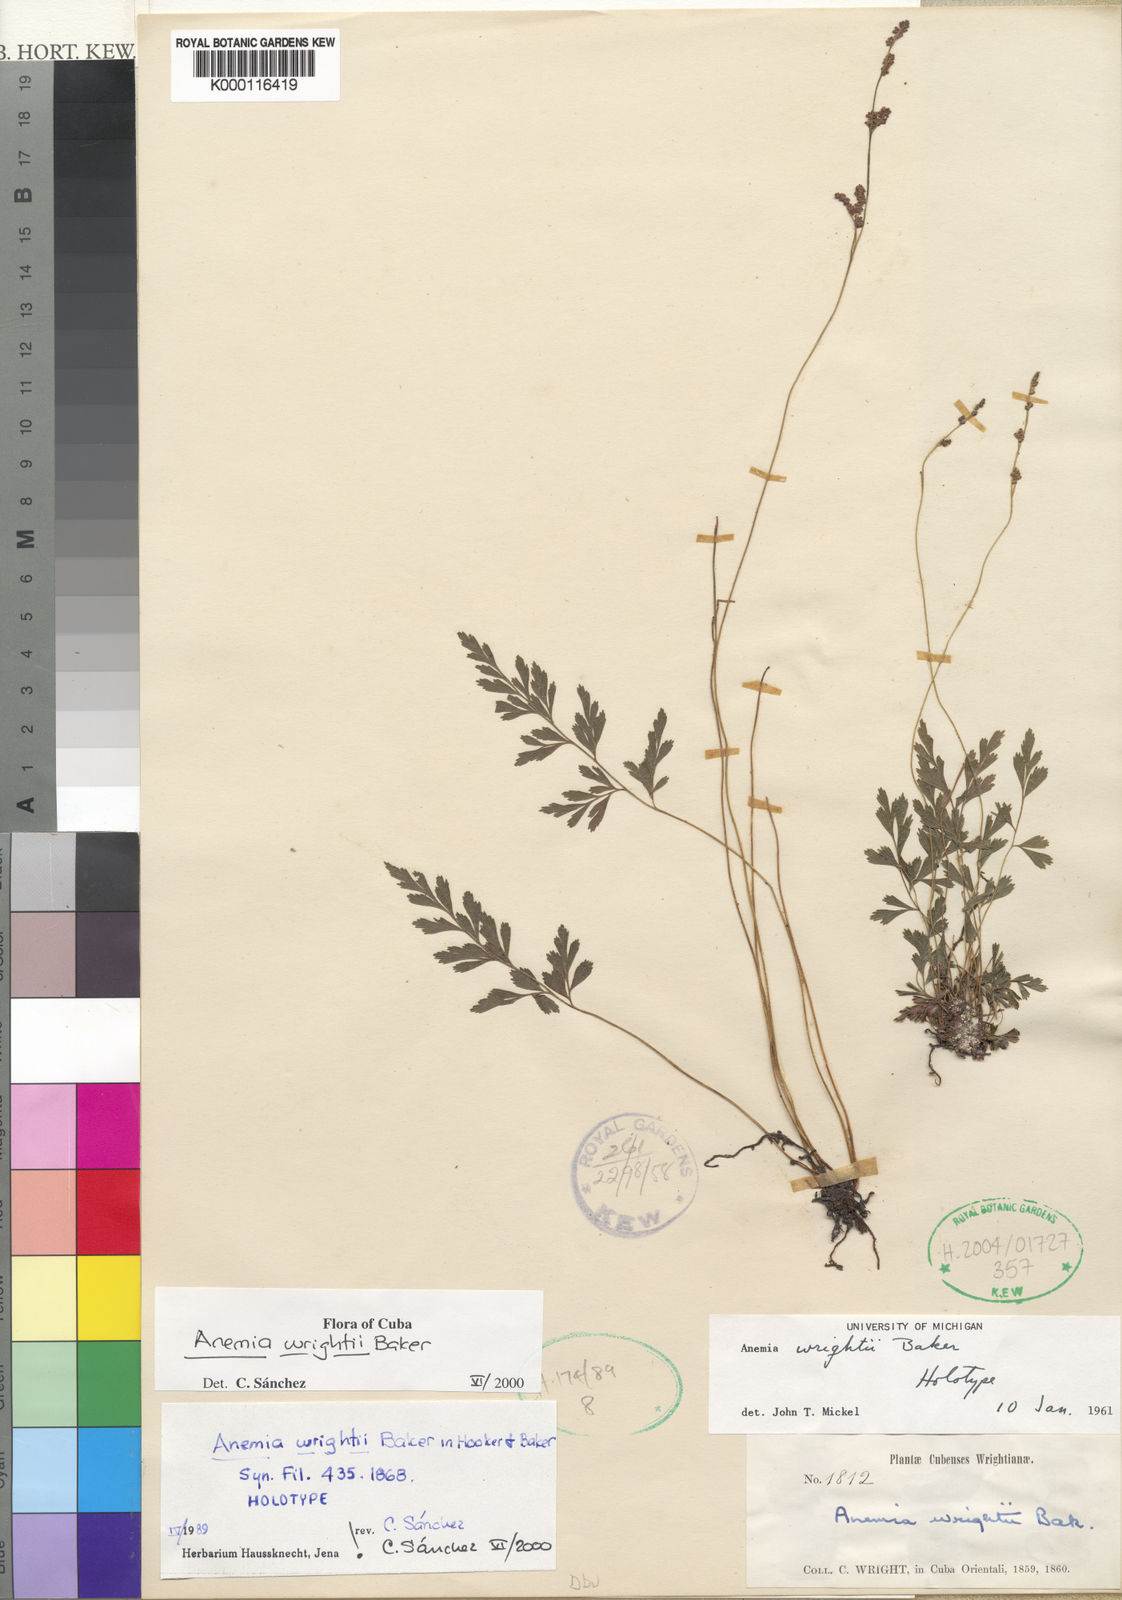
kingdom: Plantae
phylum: Tracheophyta
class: Polypodiopsida
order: Schizaeales
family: Anemiaceae
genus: Anemia
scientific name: Anemia wrightii
